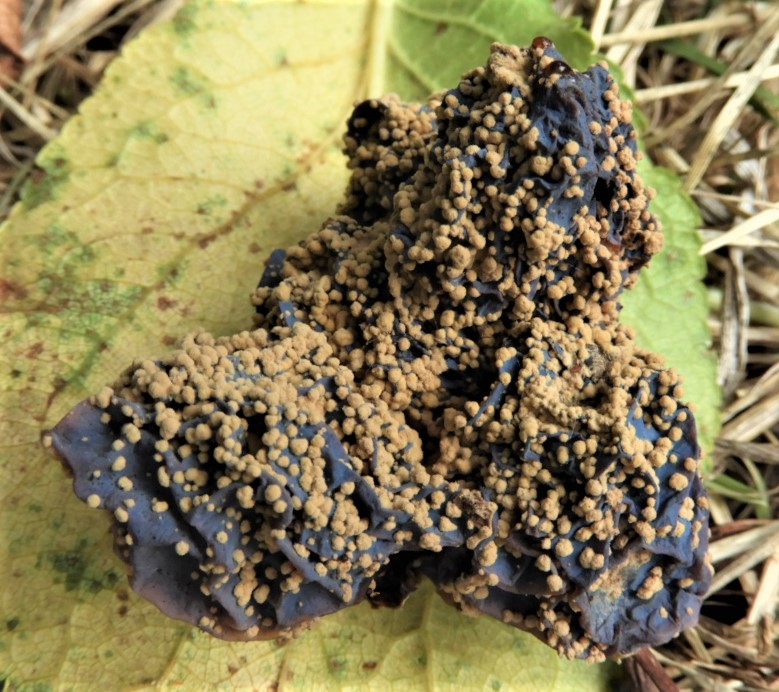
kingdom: Fungi
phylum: Ascomycota
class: Leotiomycetes
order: Helotiales
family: Sclerotiniaceae
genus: Monilinia
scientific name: Monilinia laxa
